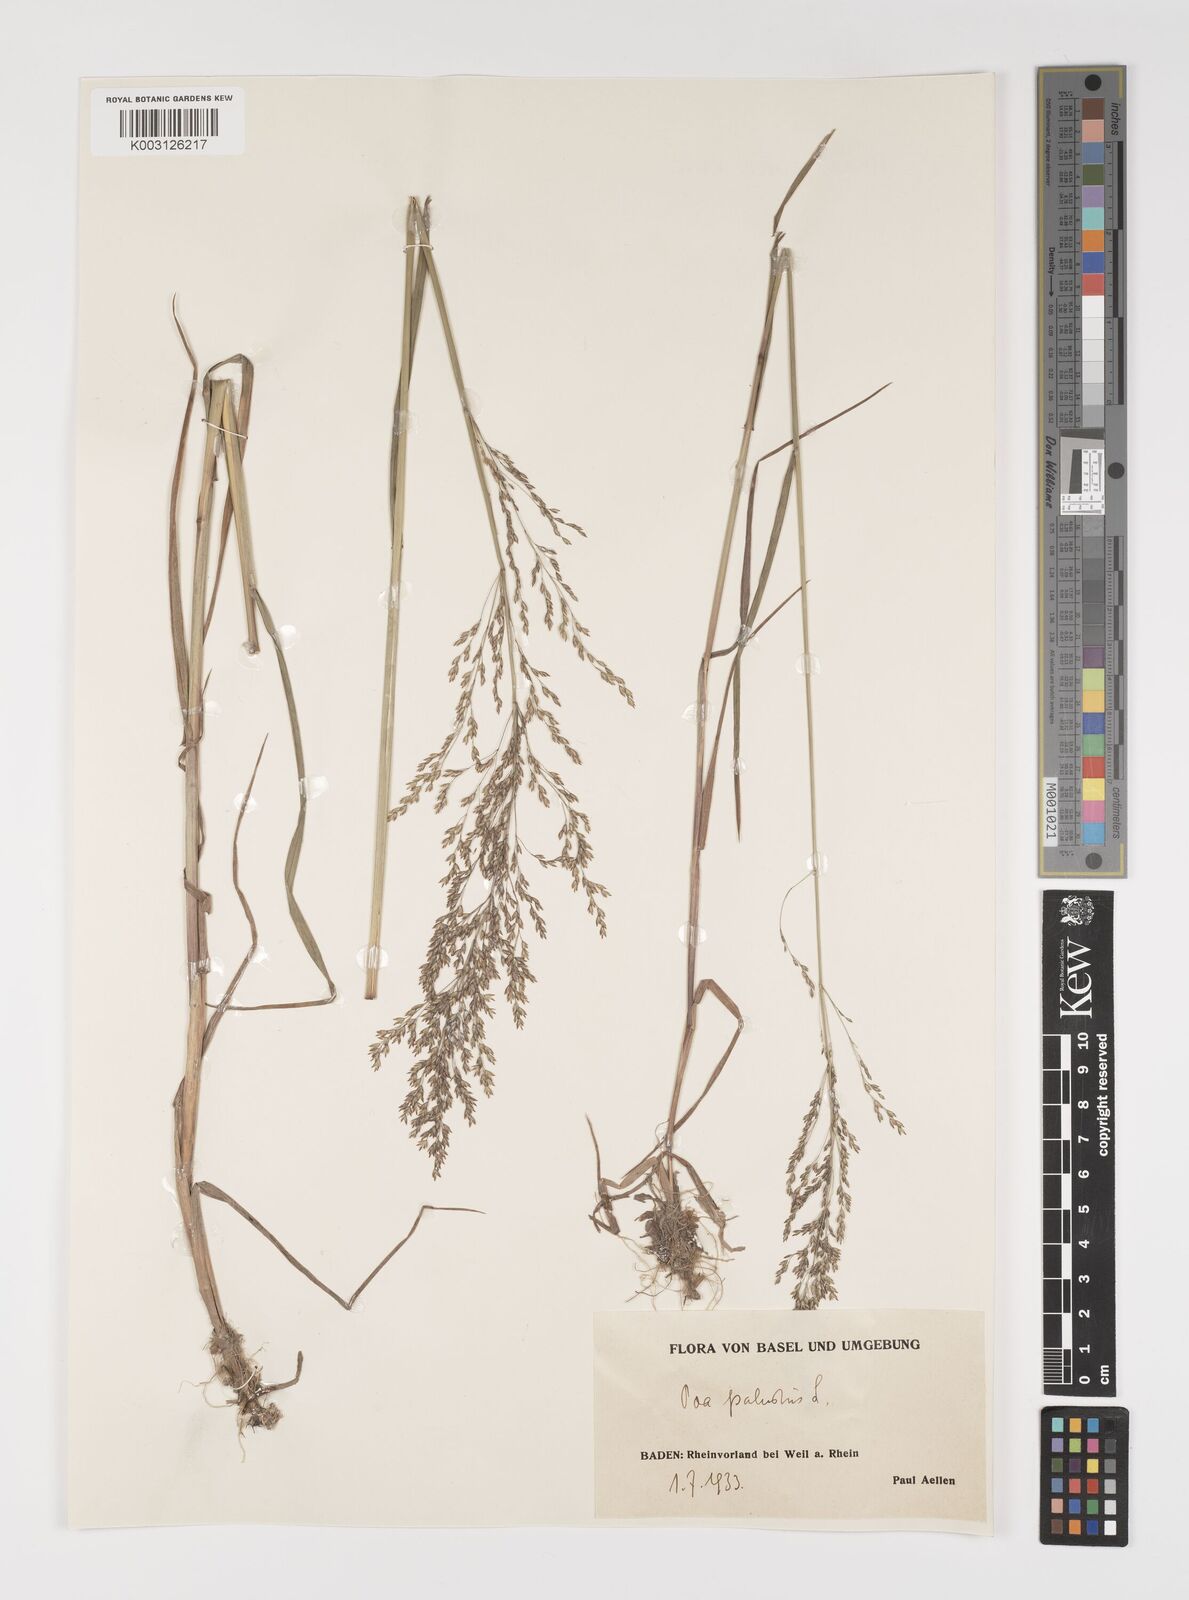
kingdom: Plantae
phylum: Tracheophyta
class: Liliopsida
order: Poales
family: Poaceae
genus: Poa
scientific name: Poa palustris
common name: Swamp meadow-grass
